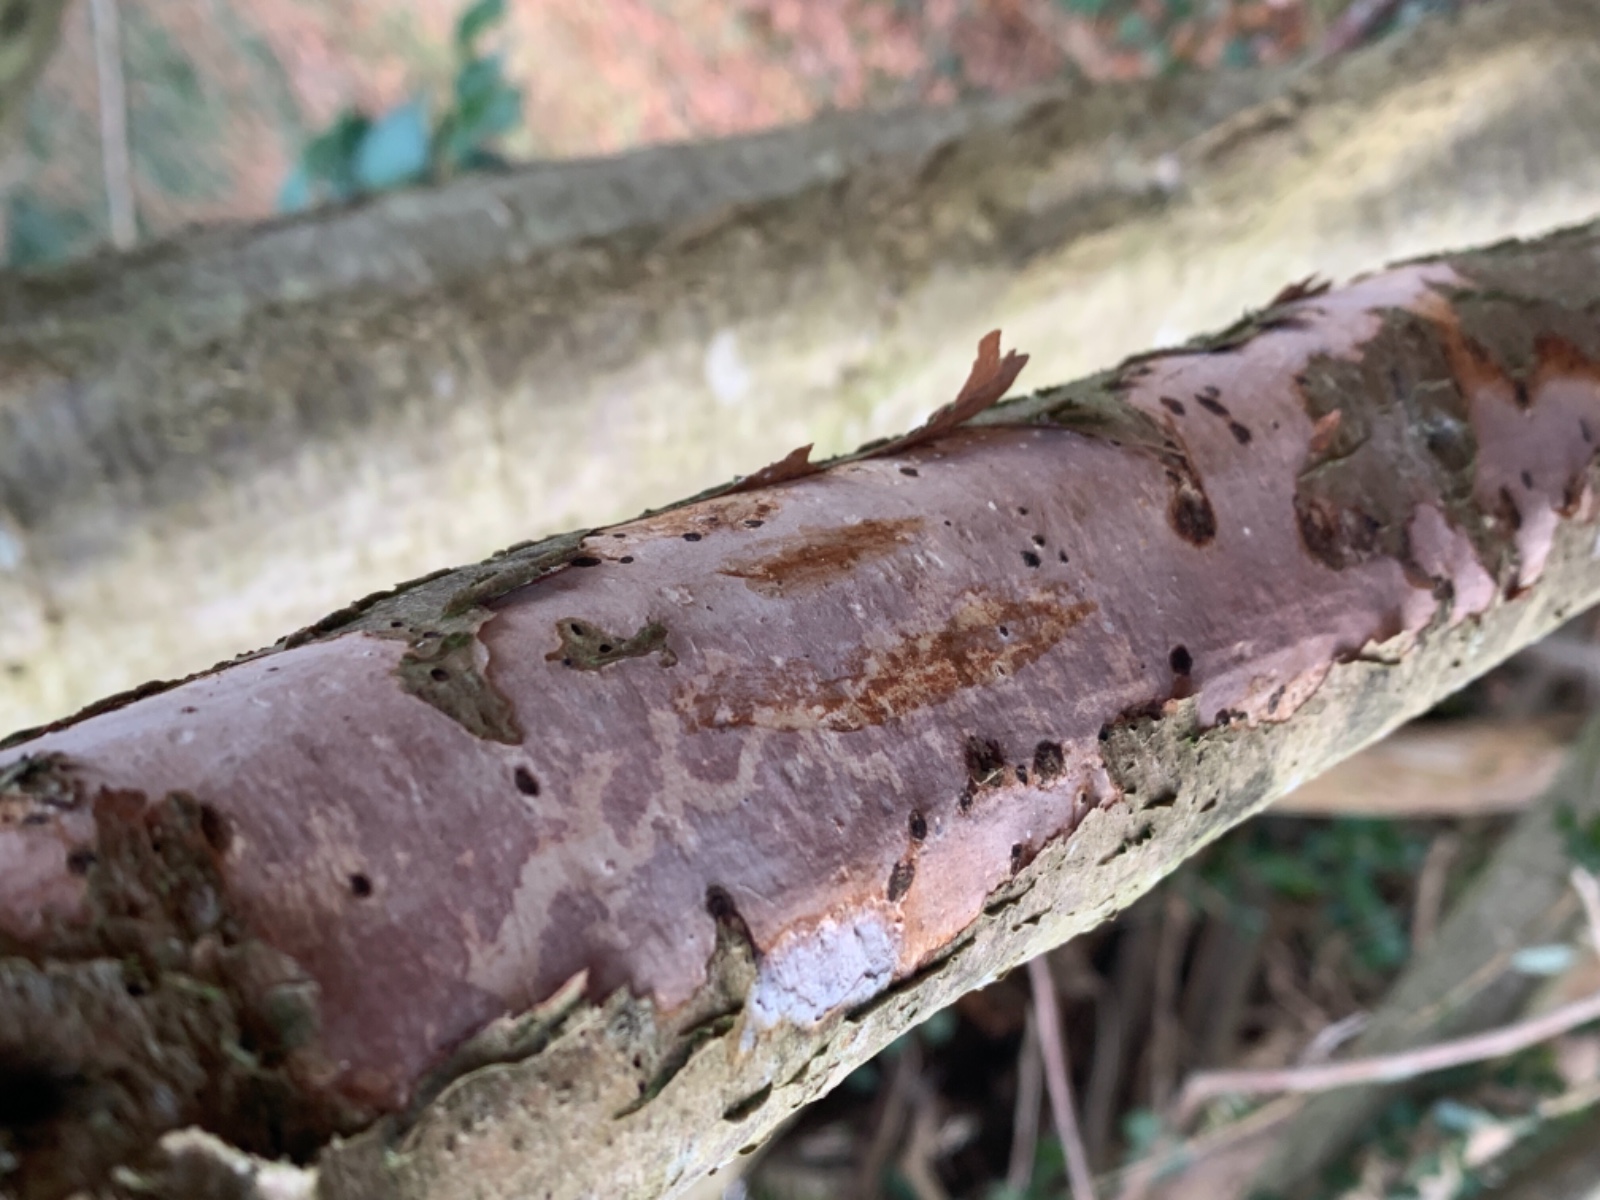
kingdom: Fungi
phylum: Basidiomycota
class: Agaricomycetes
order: Corticiales
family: Vuilleminiaceae
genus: Vuilleminia
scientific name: Vuilleminia coryli
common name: hassel-barksprænger
